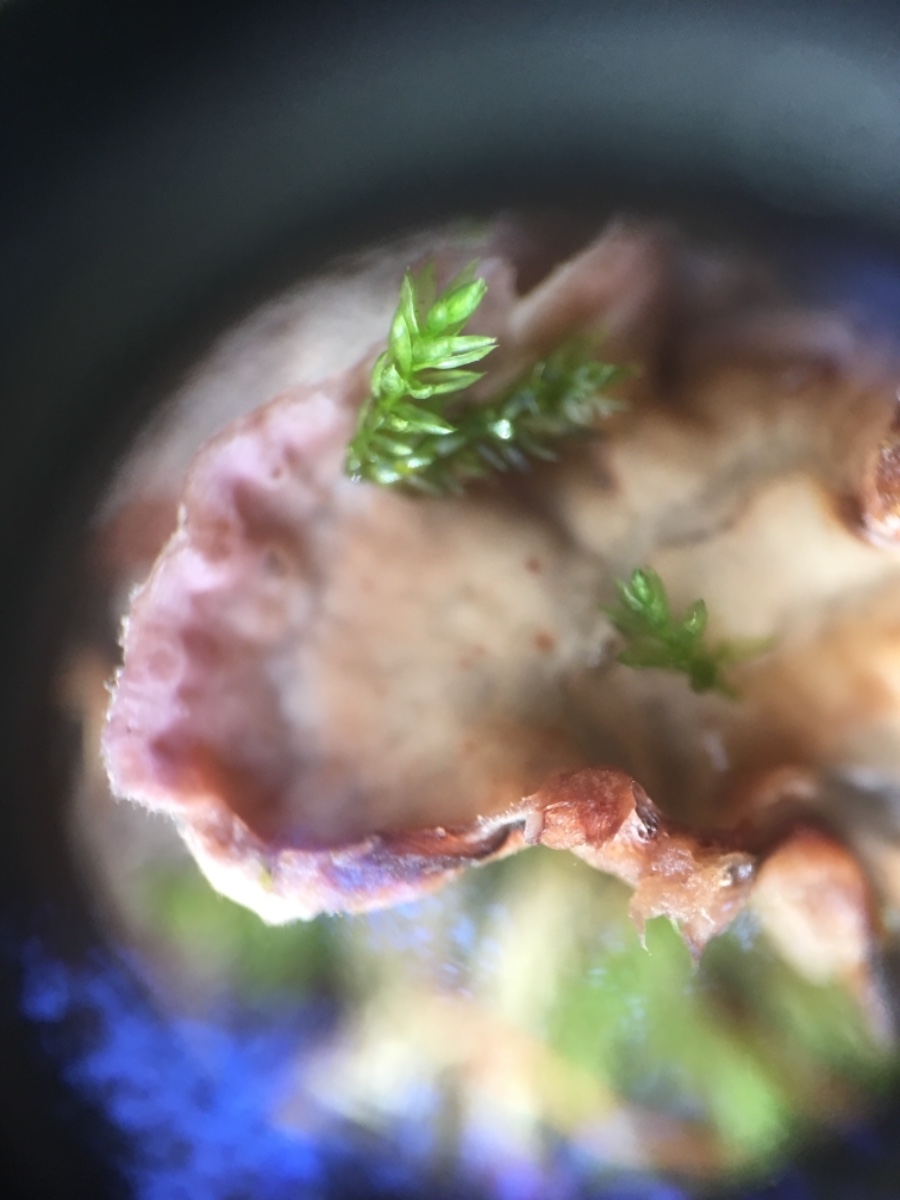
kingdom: Fungi
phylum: Basidiomycota
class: Agaricomycetes
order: Agaricales
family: Cyphellaceae
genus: Chondrostereum
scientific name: Chondrostereum purpureum
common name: purpurlædersvamp
